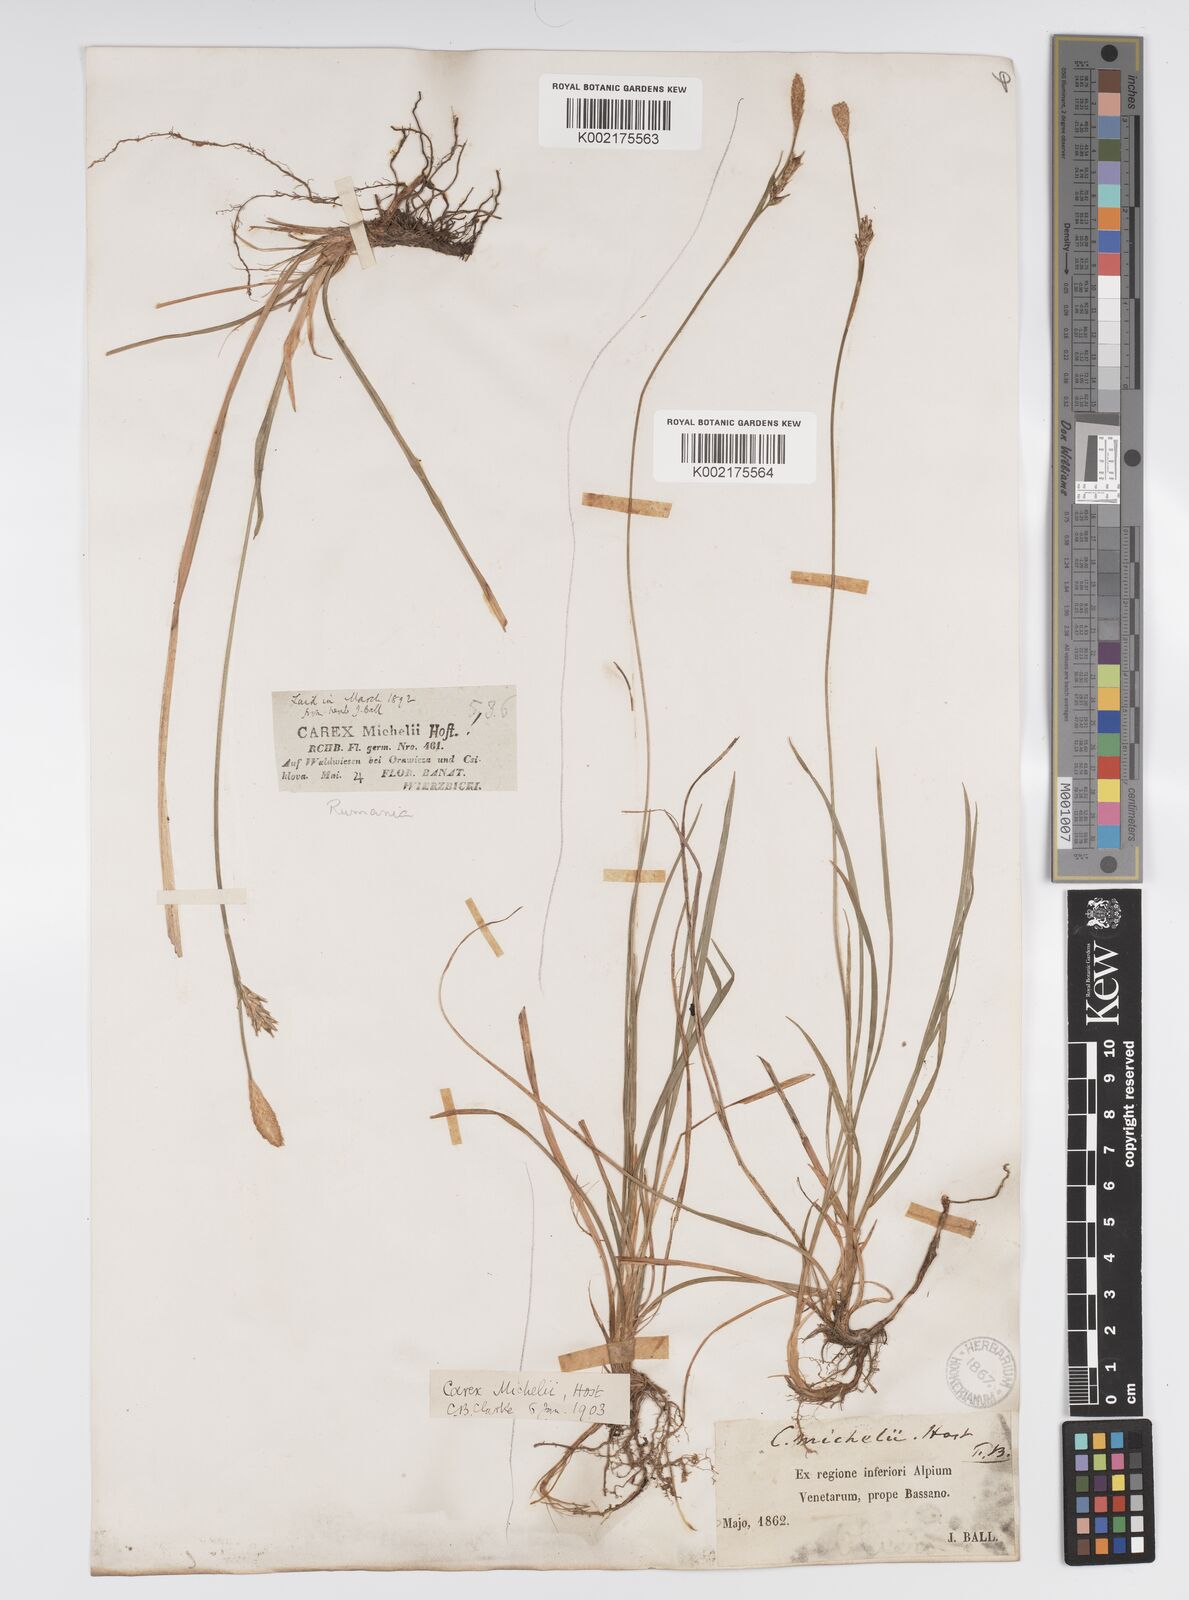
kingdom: Plantae
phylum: Tracheophyta
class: Liliopsida
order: Poales
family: Cyperaceae
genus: Carex
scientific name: Carex michelii
